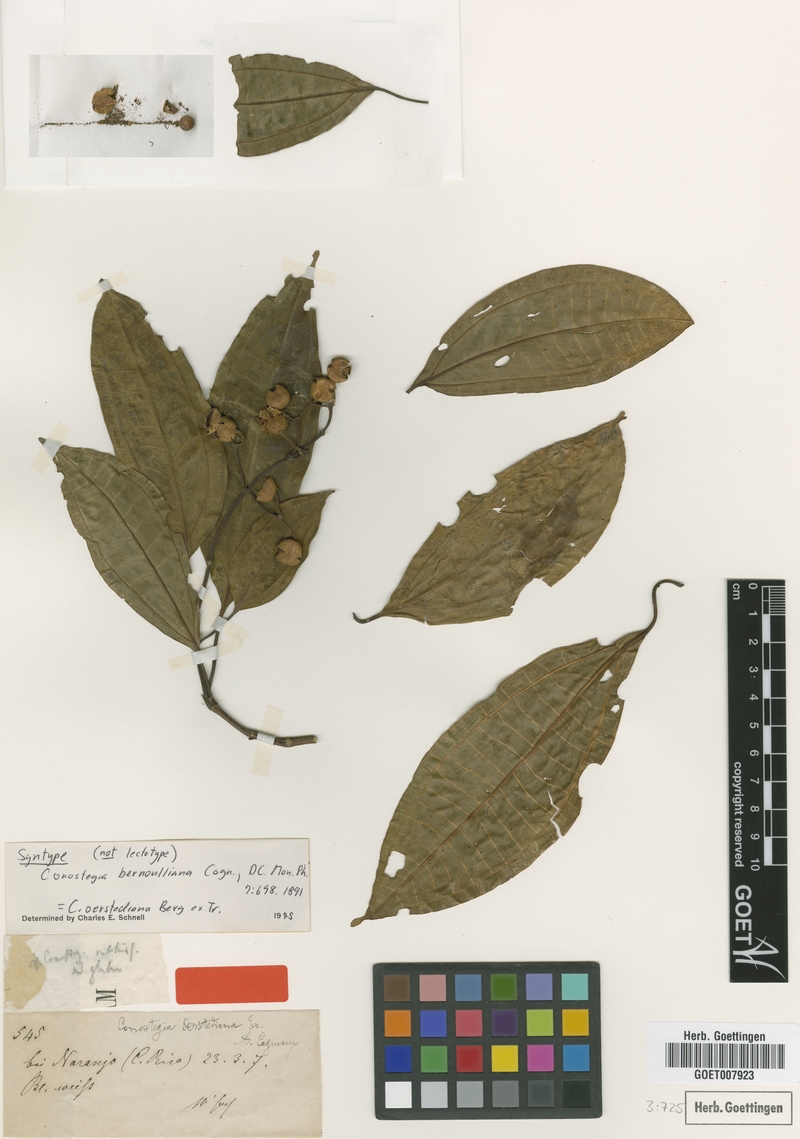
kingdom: Plantae
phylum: Tracheophyta
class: Magnoliopsida
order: Myrtales
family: Melastomataceae
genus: Miconia
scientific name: Miconia oerstediana
